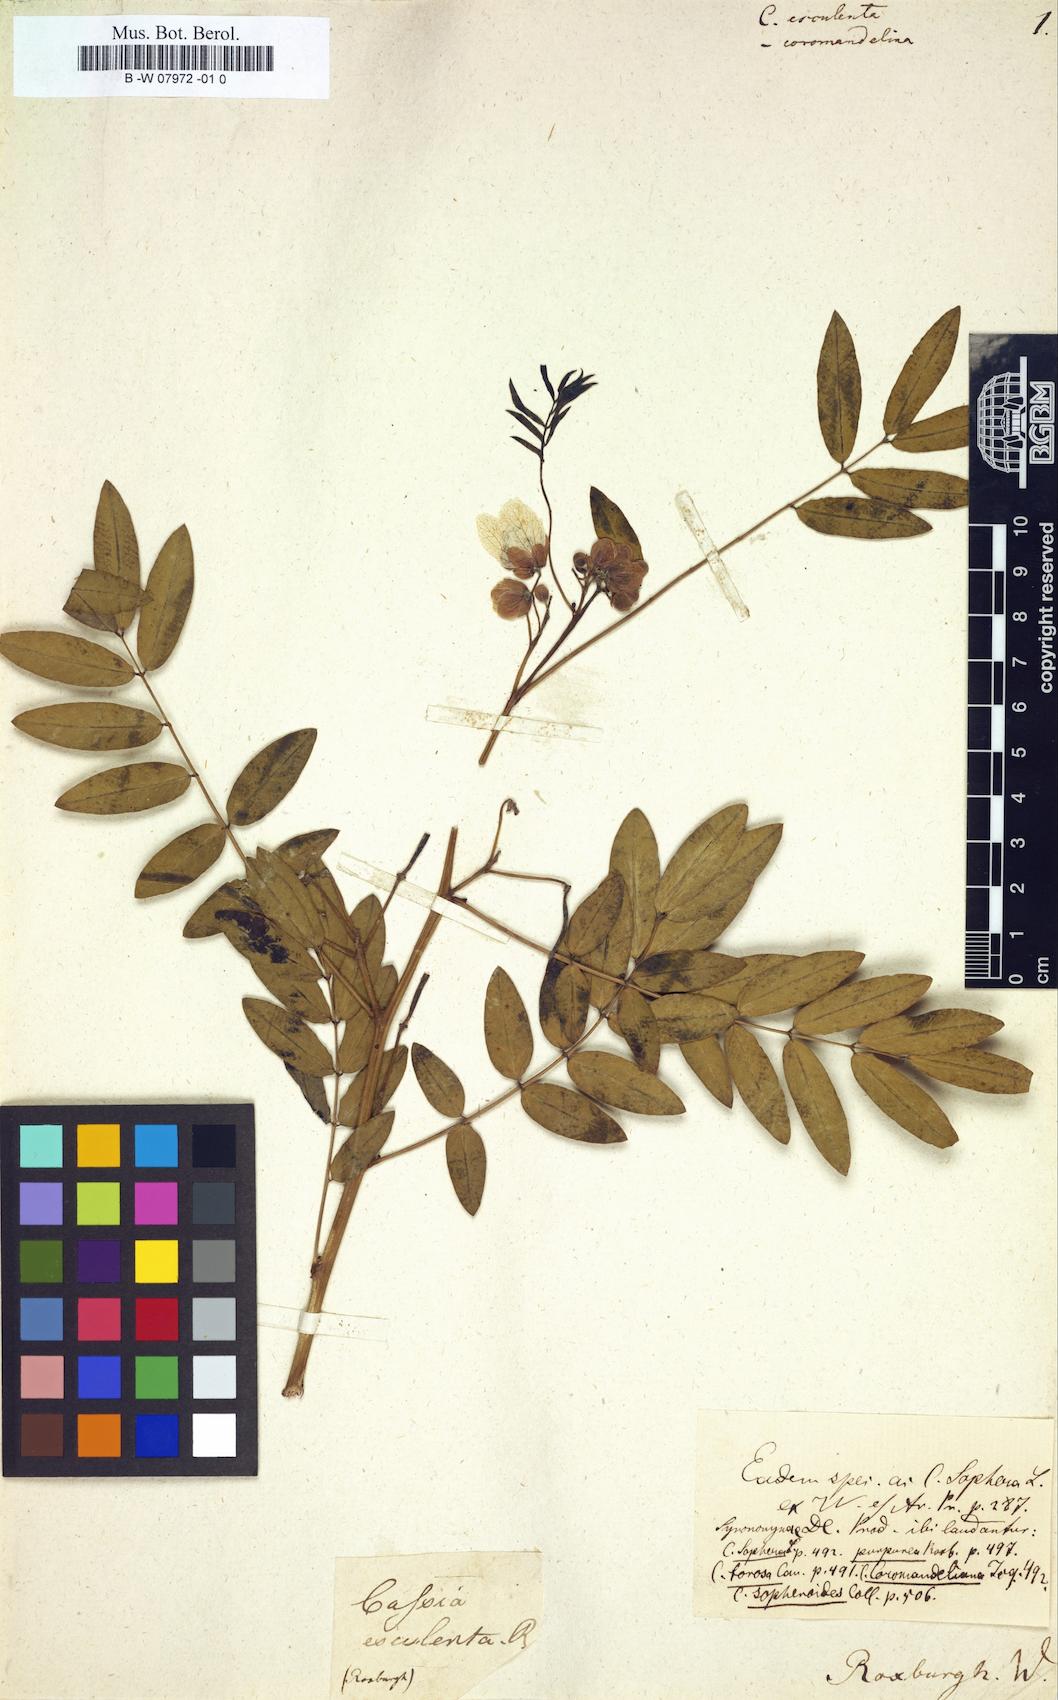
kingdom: Plantae
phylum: Tracheophyta
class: Magnoliopsida
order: Fabales
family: Fabaceae
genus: Senna
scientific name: Senna sophera
